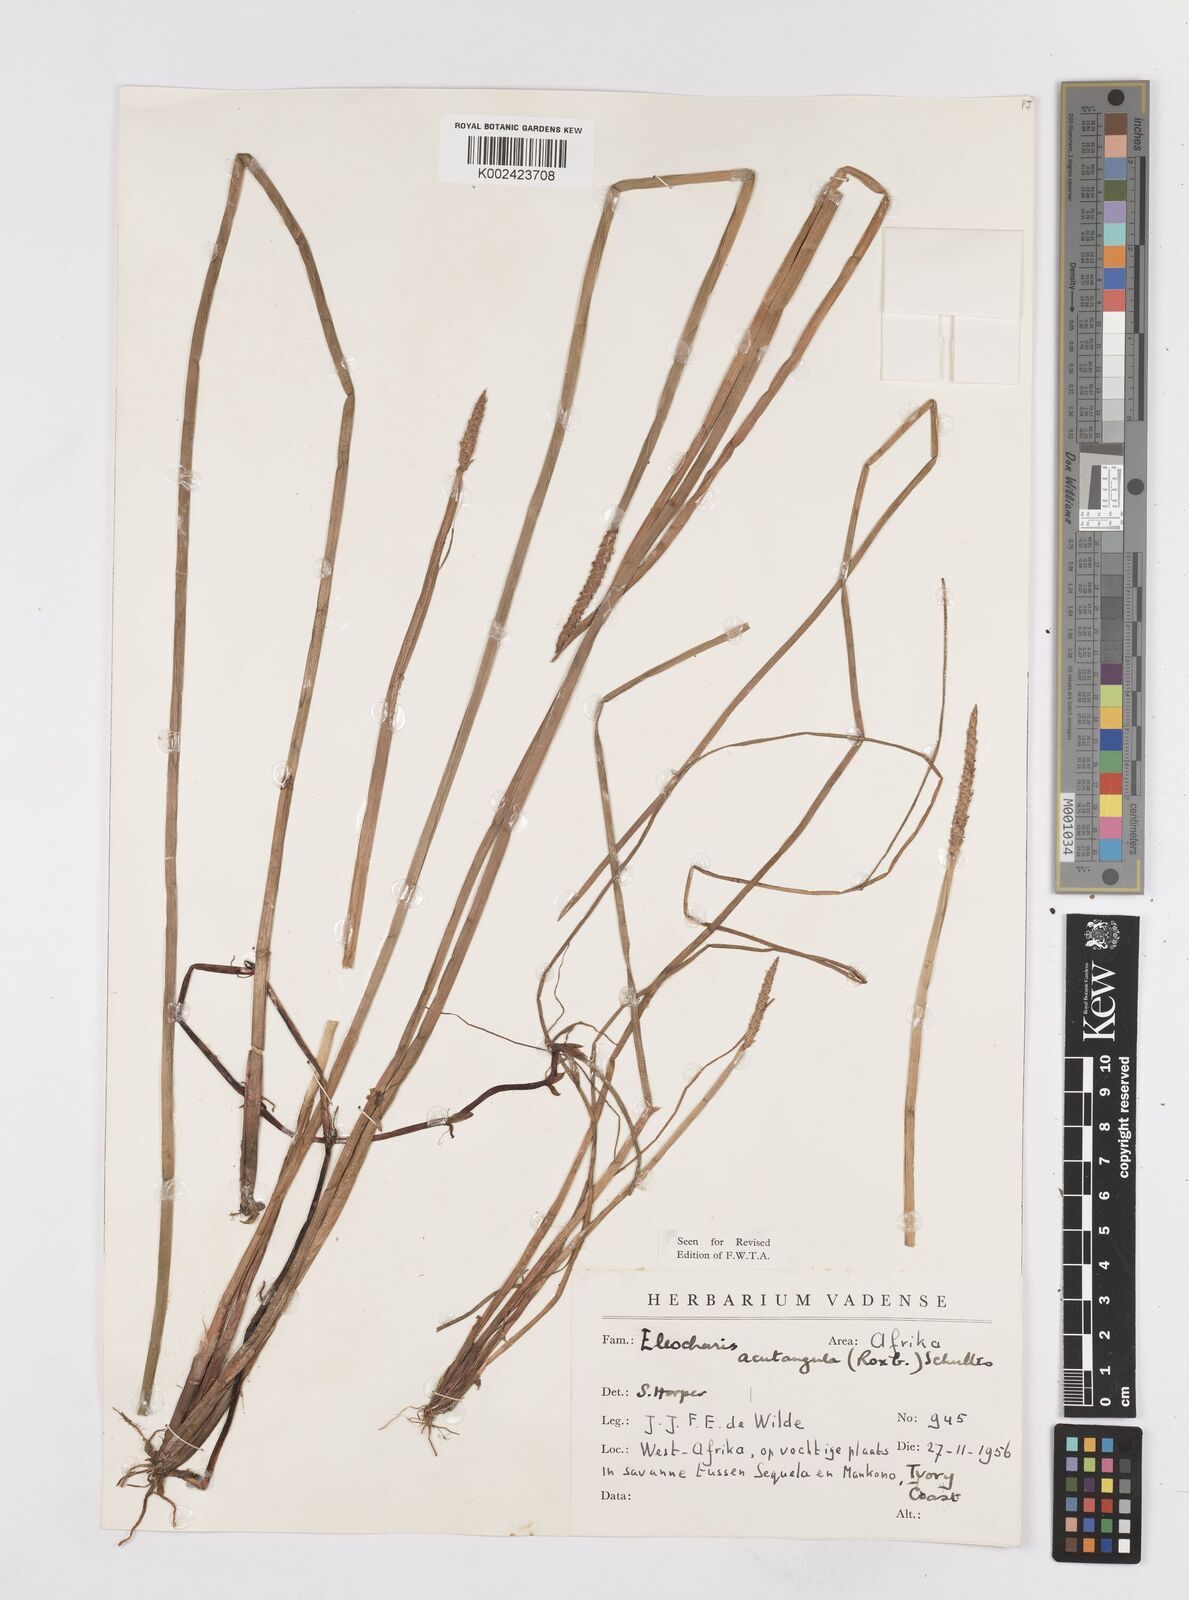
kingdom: Plantae
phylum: Tracheophyta
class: Liliopsida
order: Poales
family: Cyperaceae
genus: Eleocharis
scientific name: Eleocharis acutangula
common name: Acute spikerush
